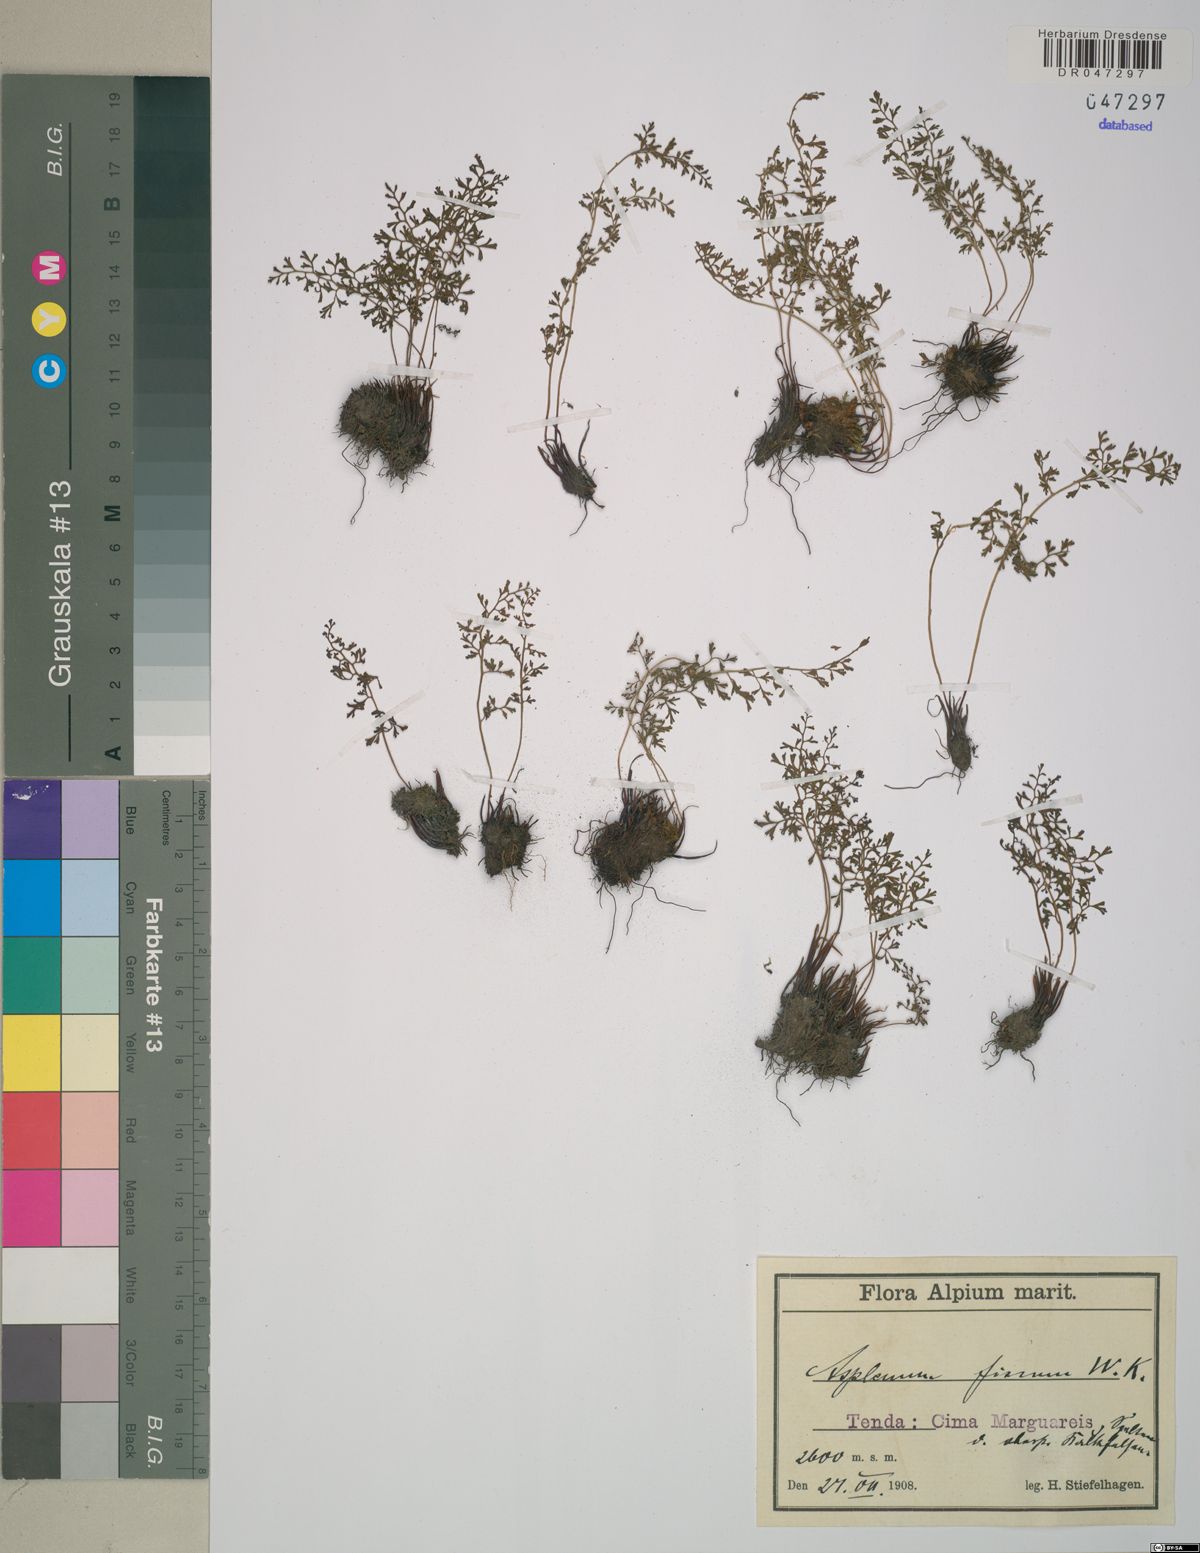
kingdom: Plantae
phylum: Tracheophyta
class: Polypodiopsida
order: Polypodiales
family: Aspleniaceae
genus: Asplenium
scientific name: Asplenium fissum
